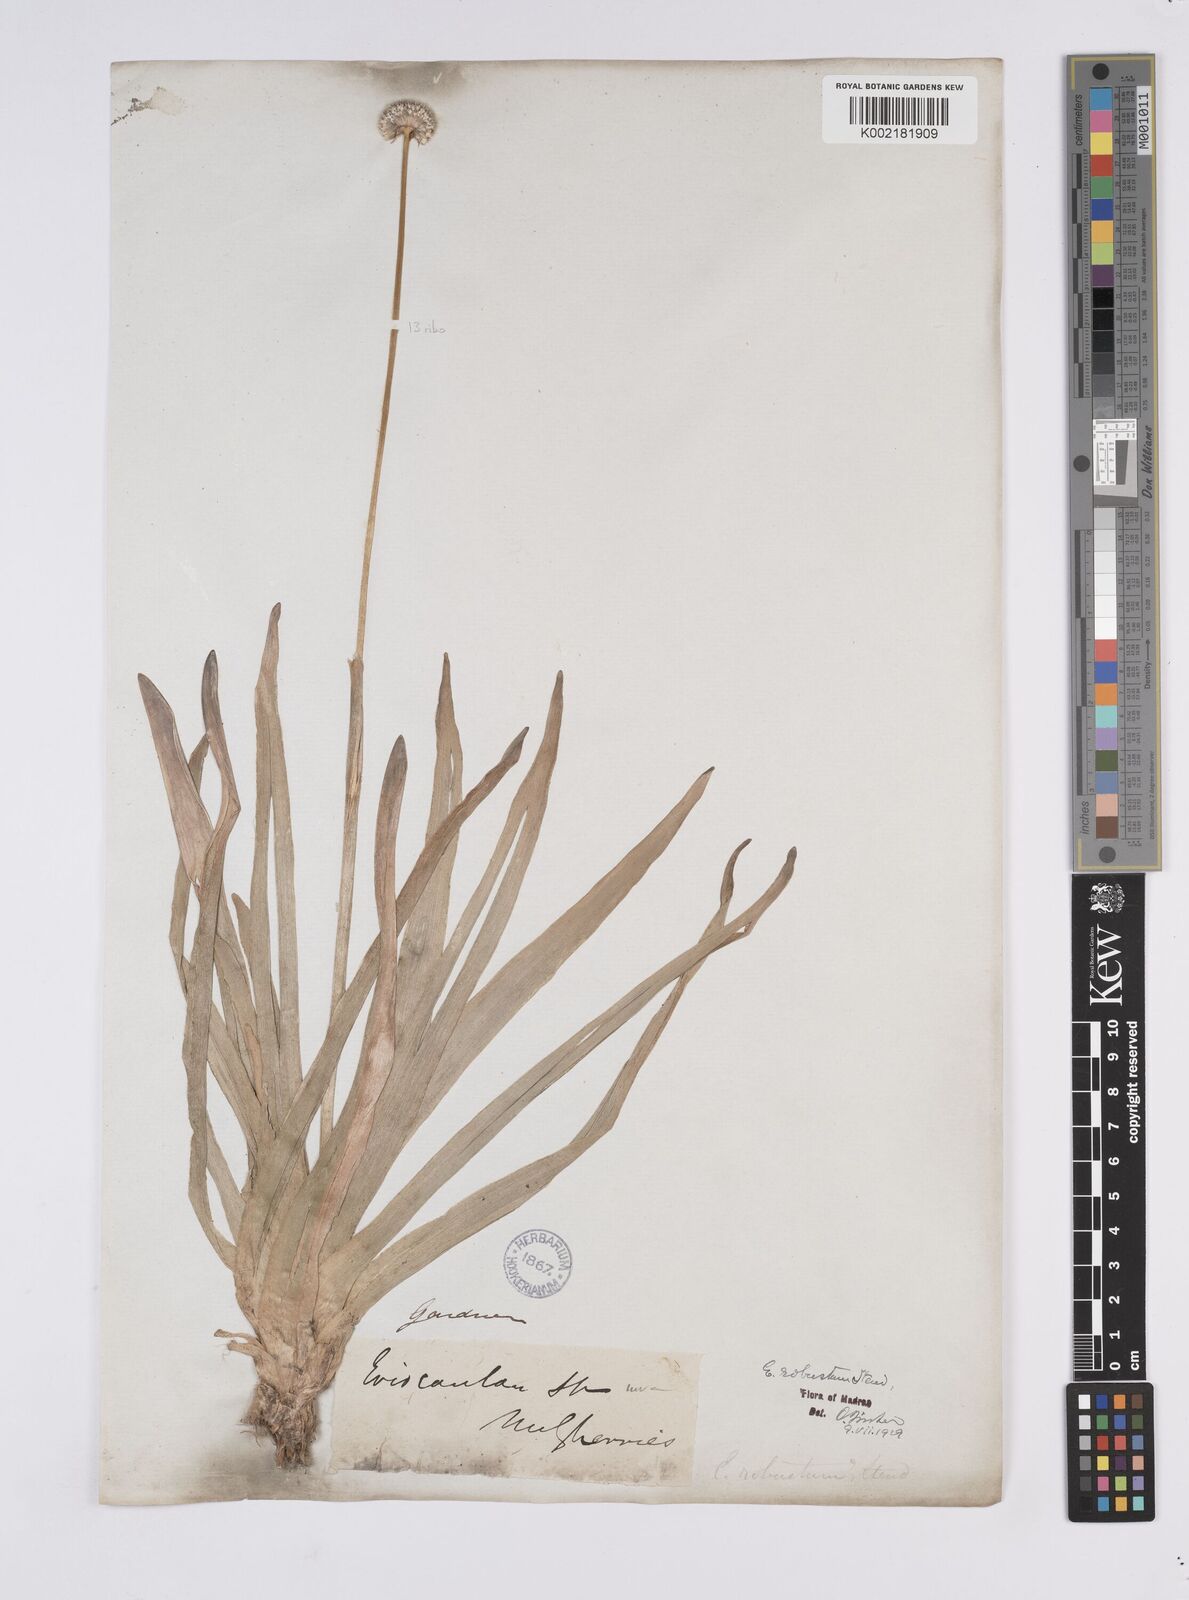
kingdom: Plantae
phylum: Tracheophyta
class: Liliopsida
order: Poales
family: Eriocaulaceae
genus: Eriocaulon
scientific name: Eriocaulon robustum
